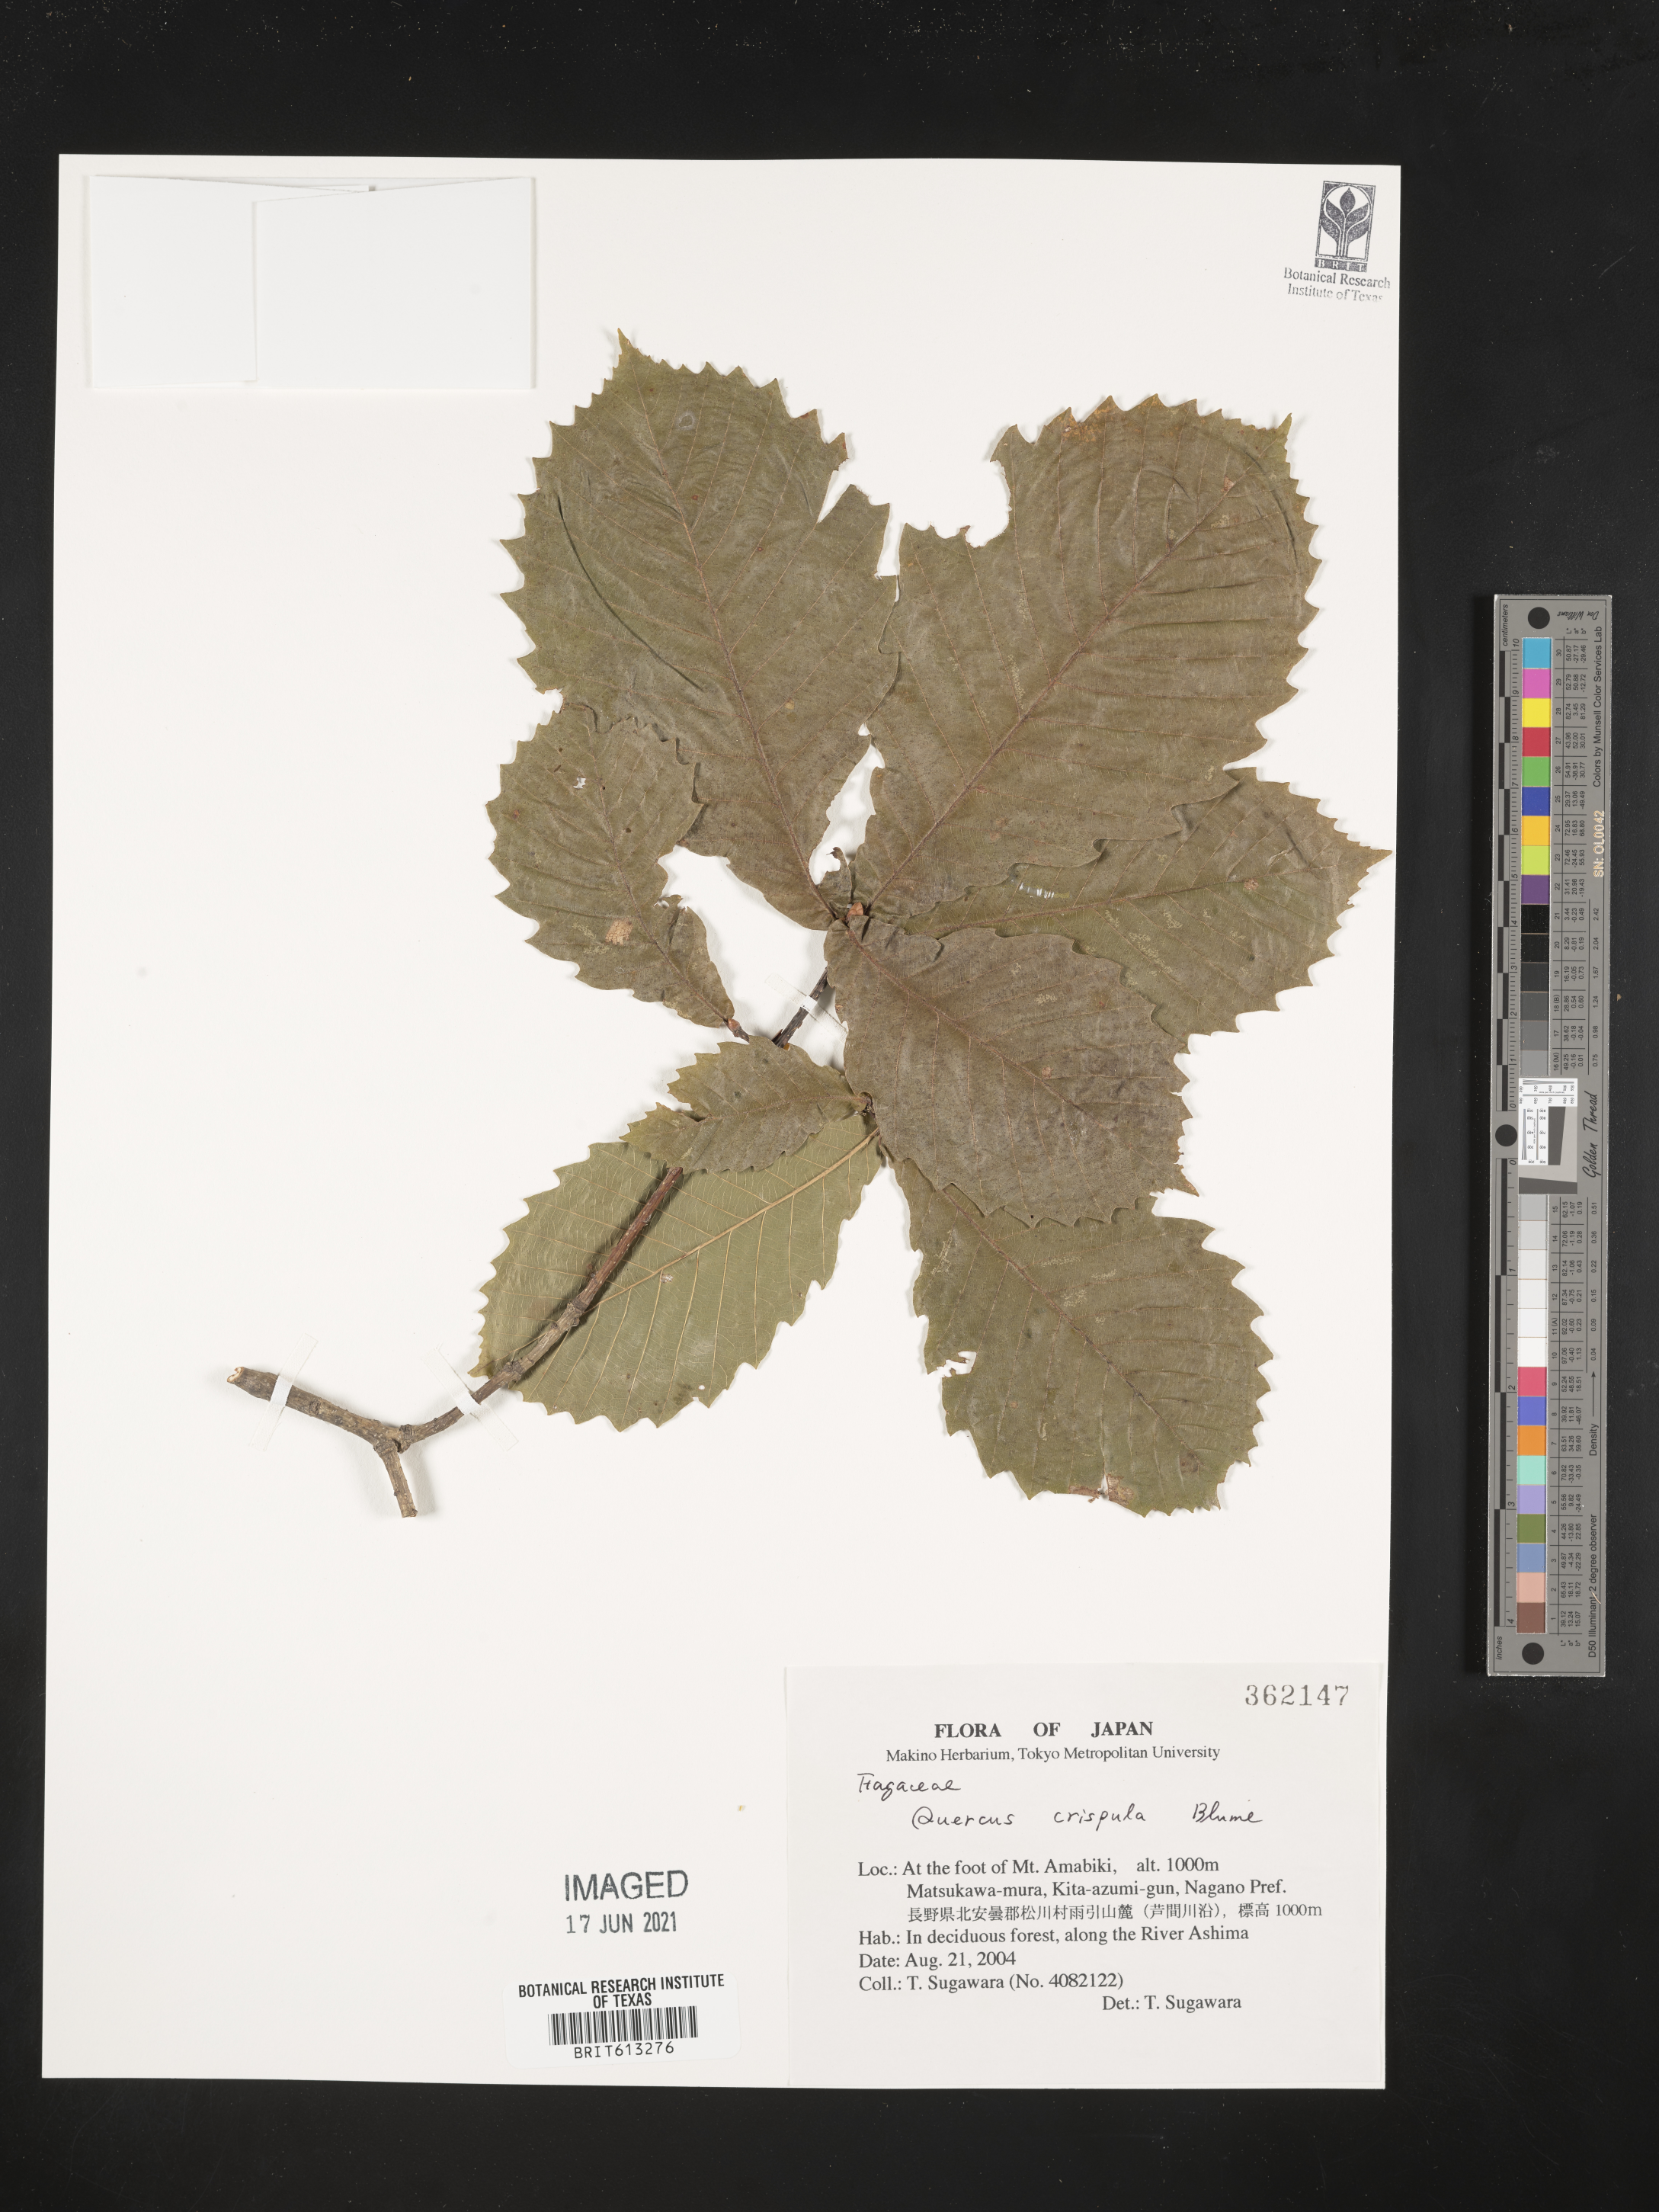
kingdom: Plantae
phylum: Tracheophyta
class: Magnoliopsida
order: Fagales
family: Fagaceae
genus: Quercus
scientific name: Quercus crispula
